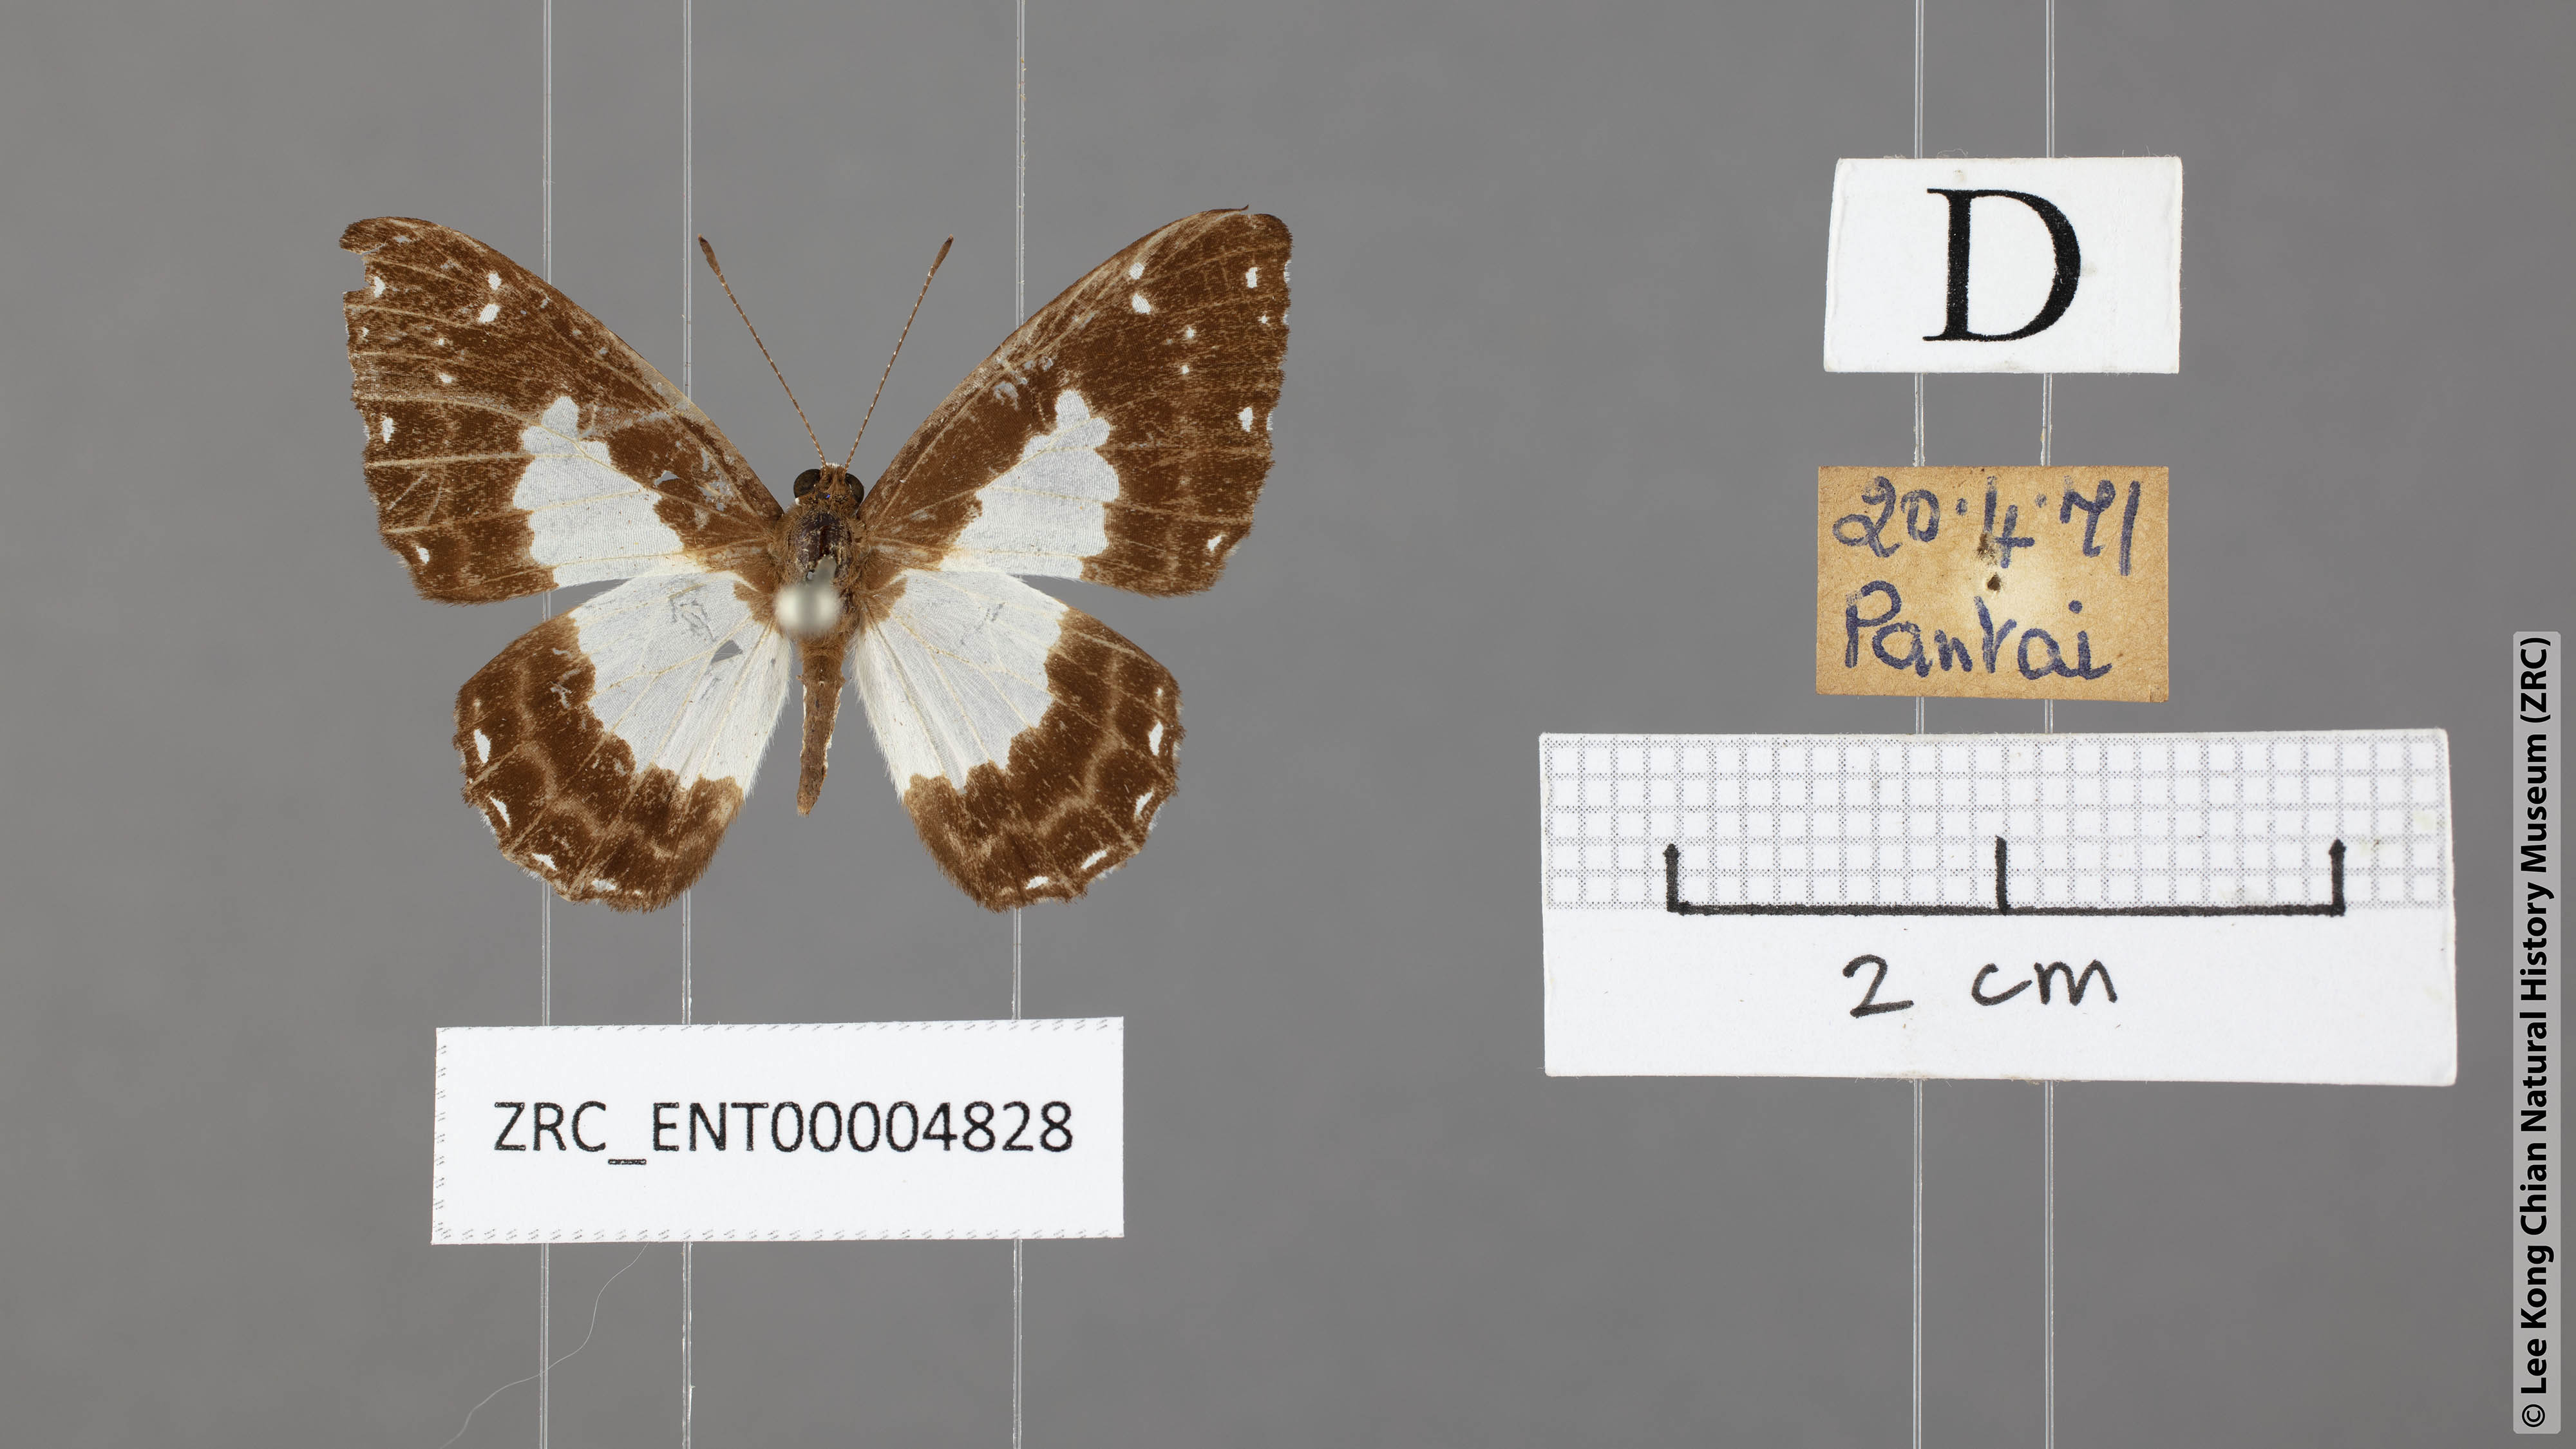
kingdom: Animalia
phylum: Arthropoda
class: Insecta
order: Lepidoptera
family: Riodinidae
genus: Stiboges
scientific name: Stiboges nymphidia
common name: Columbine
